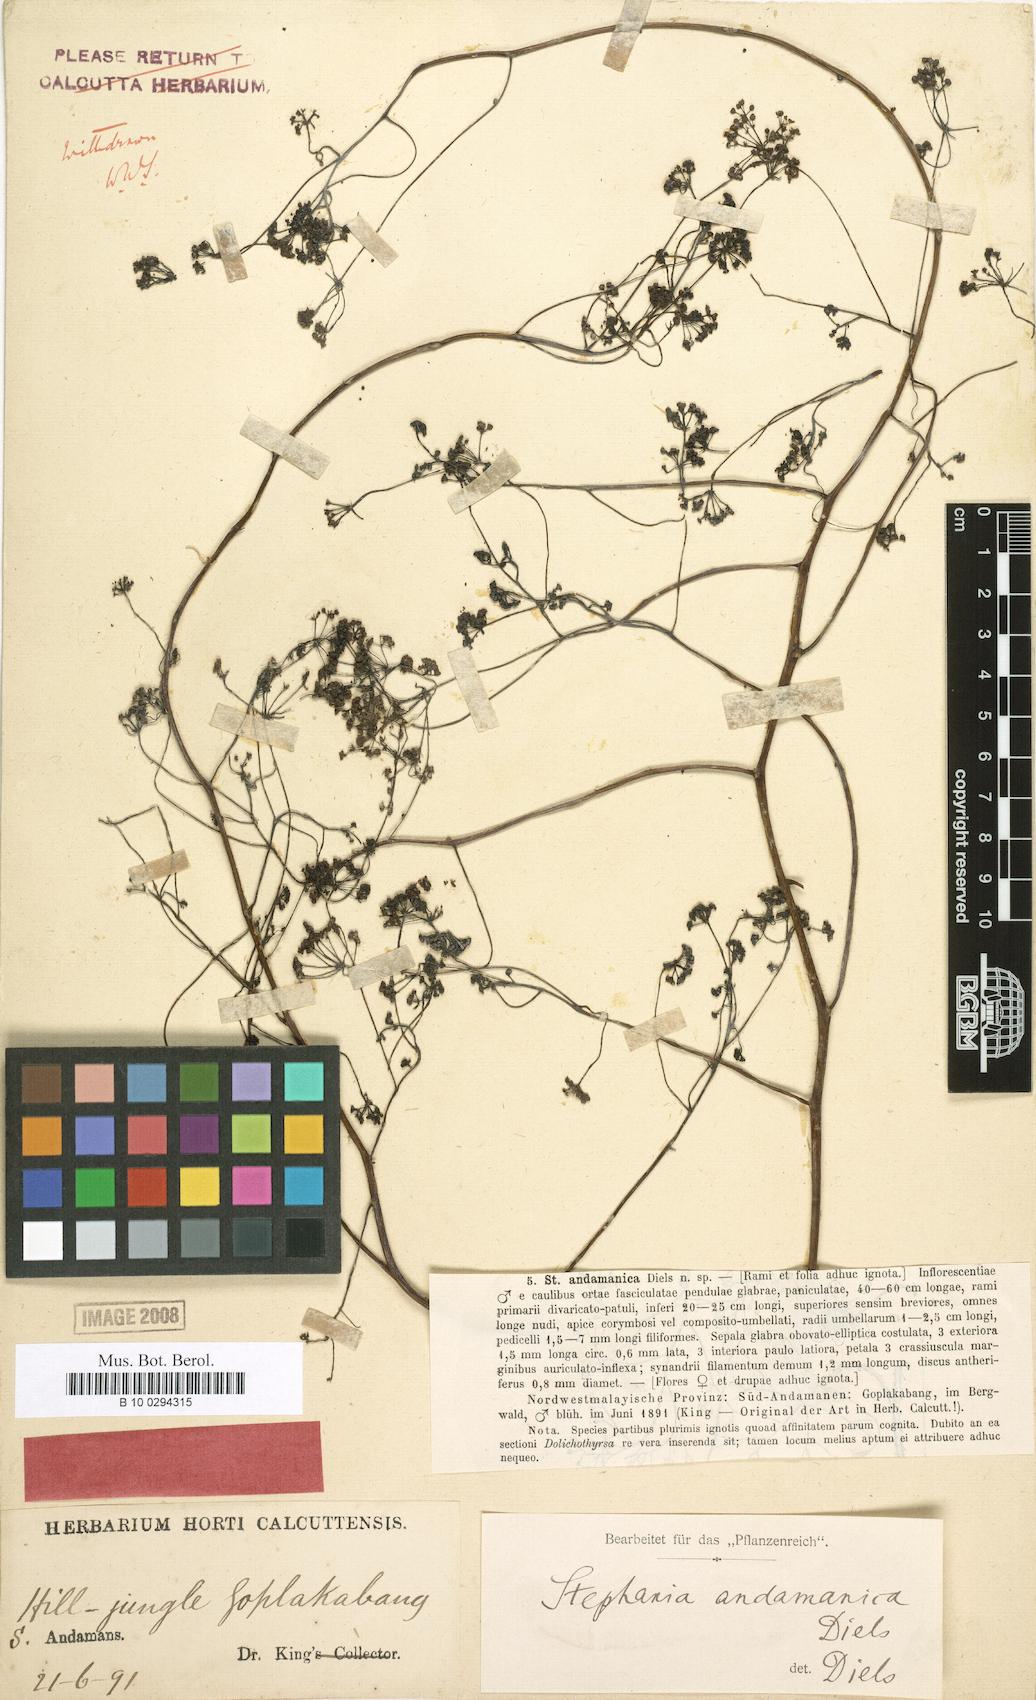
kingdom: Plantae
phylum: Tracheophyta
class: Magnoliopsida
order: Ranunculales
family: Menispermaceae
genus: Stephania
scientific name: Stephania andamanica
